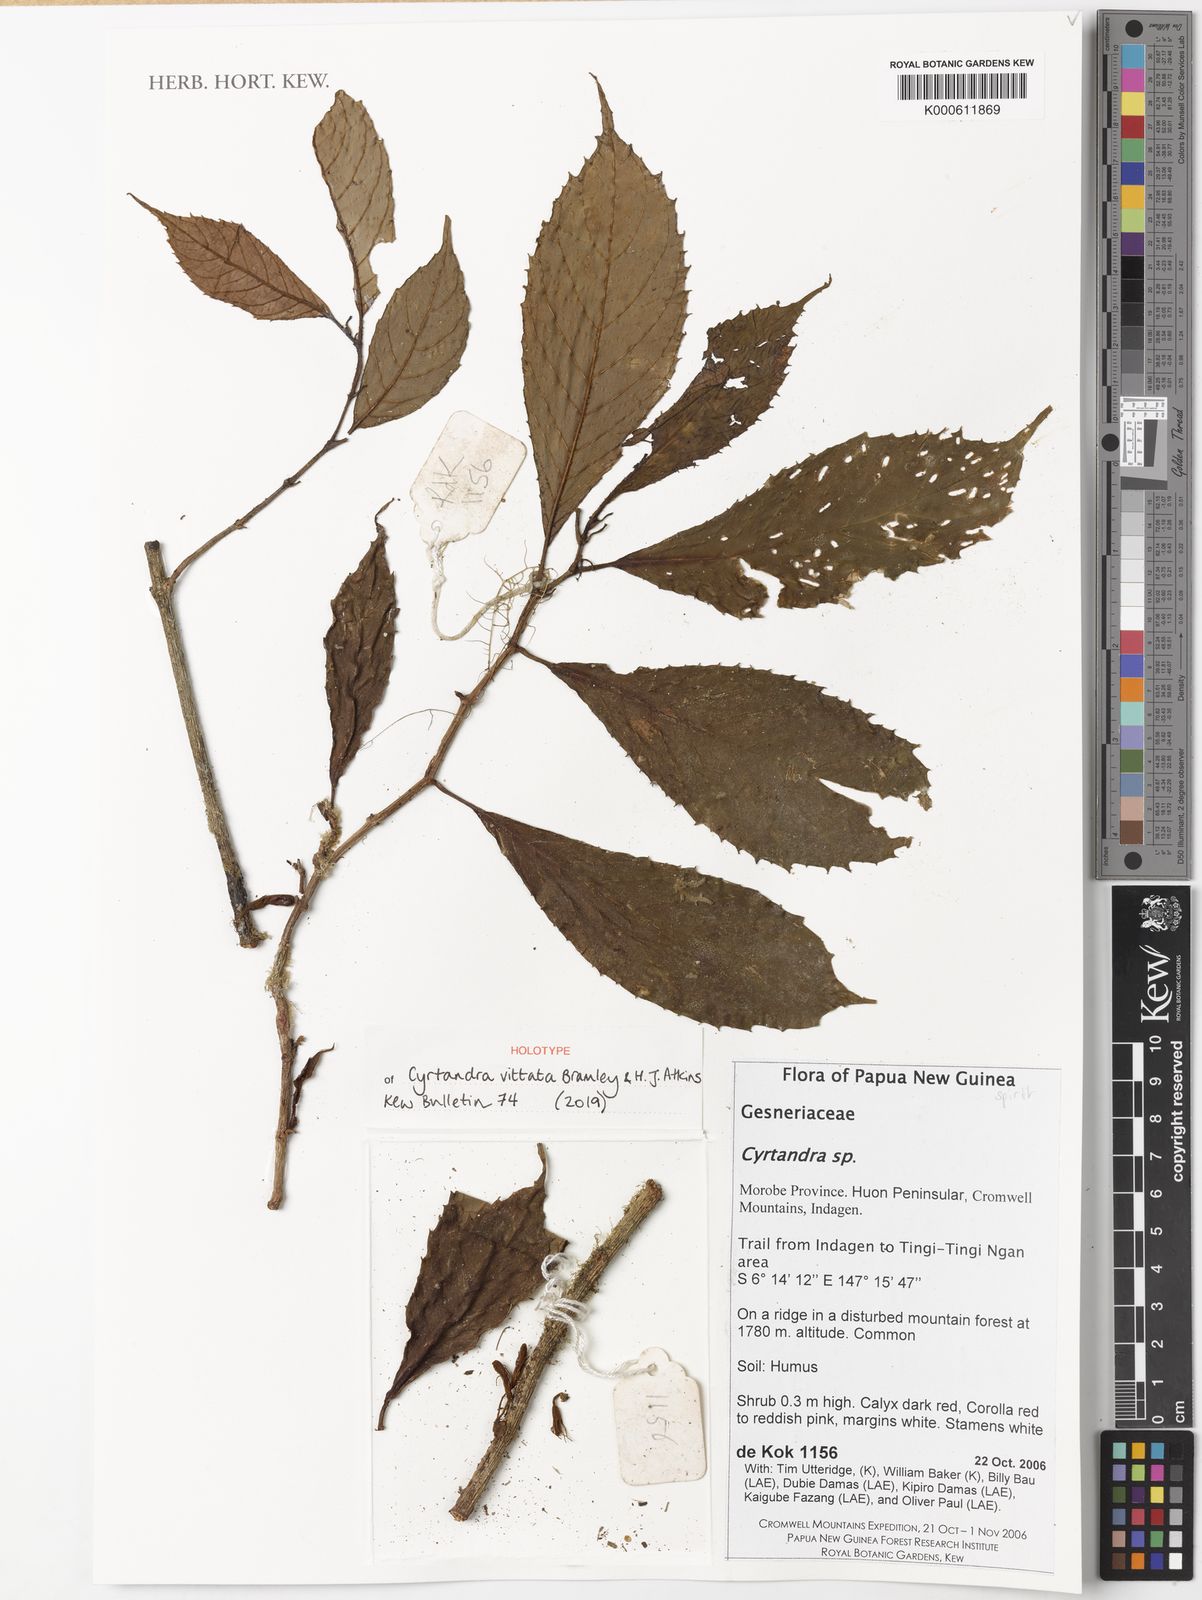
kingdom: Plantae
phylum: Tracheophyta
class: Magnoliopsida
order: Lamiales
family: Gesneriaceae
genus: Cyrtandra
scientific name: Cyrtandra
